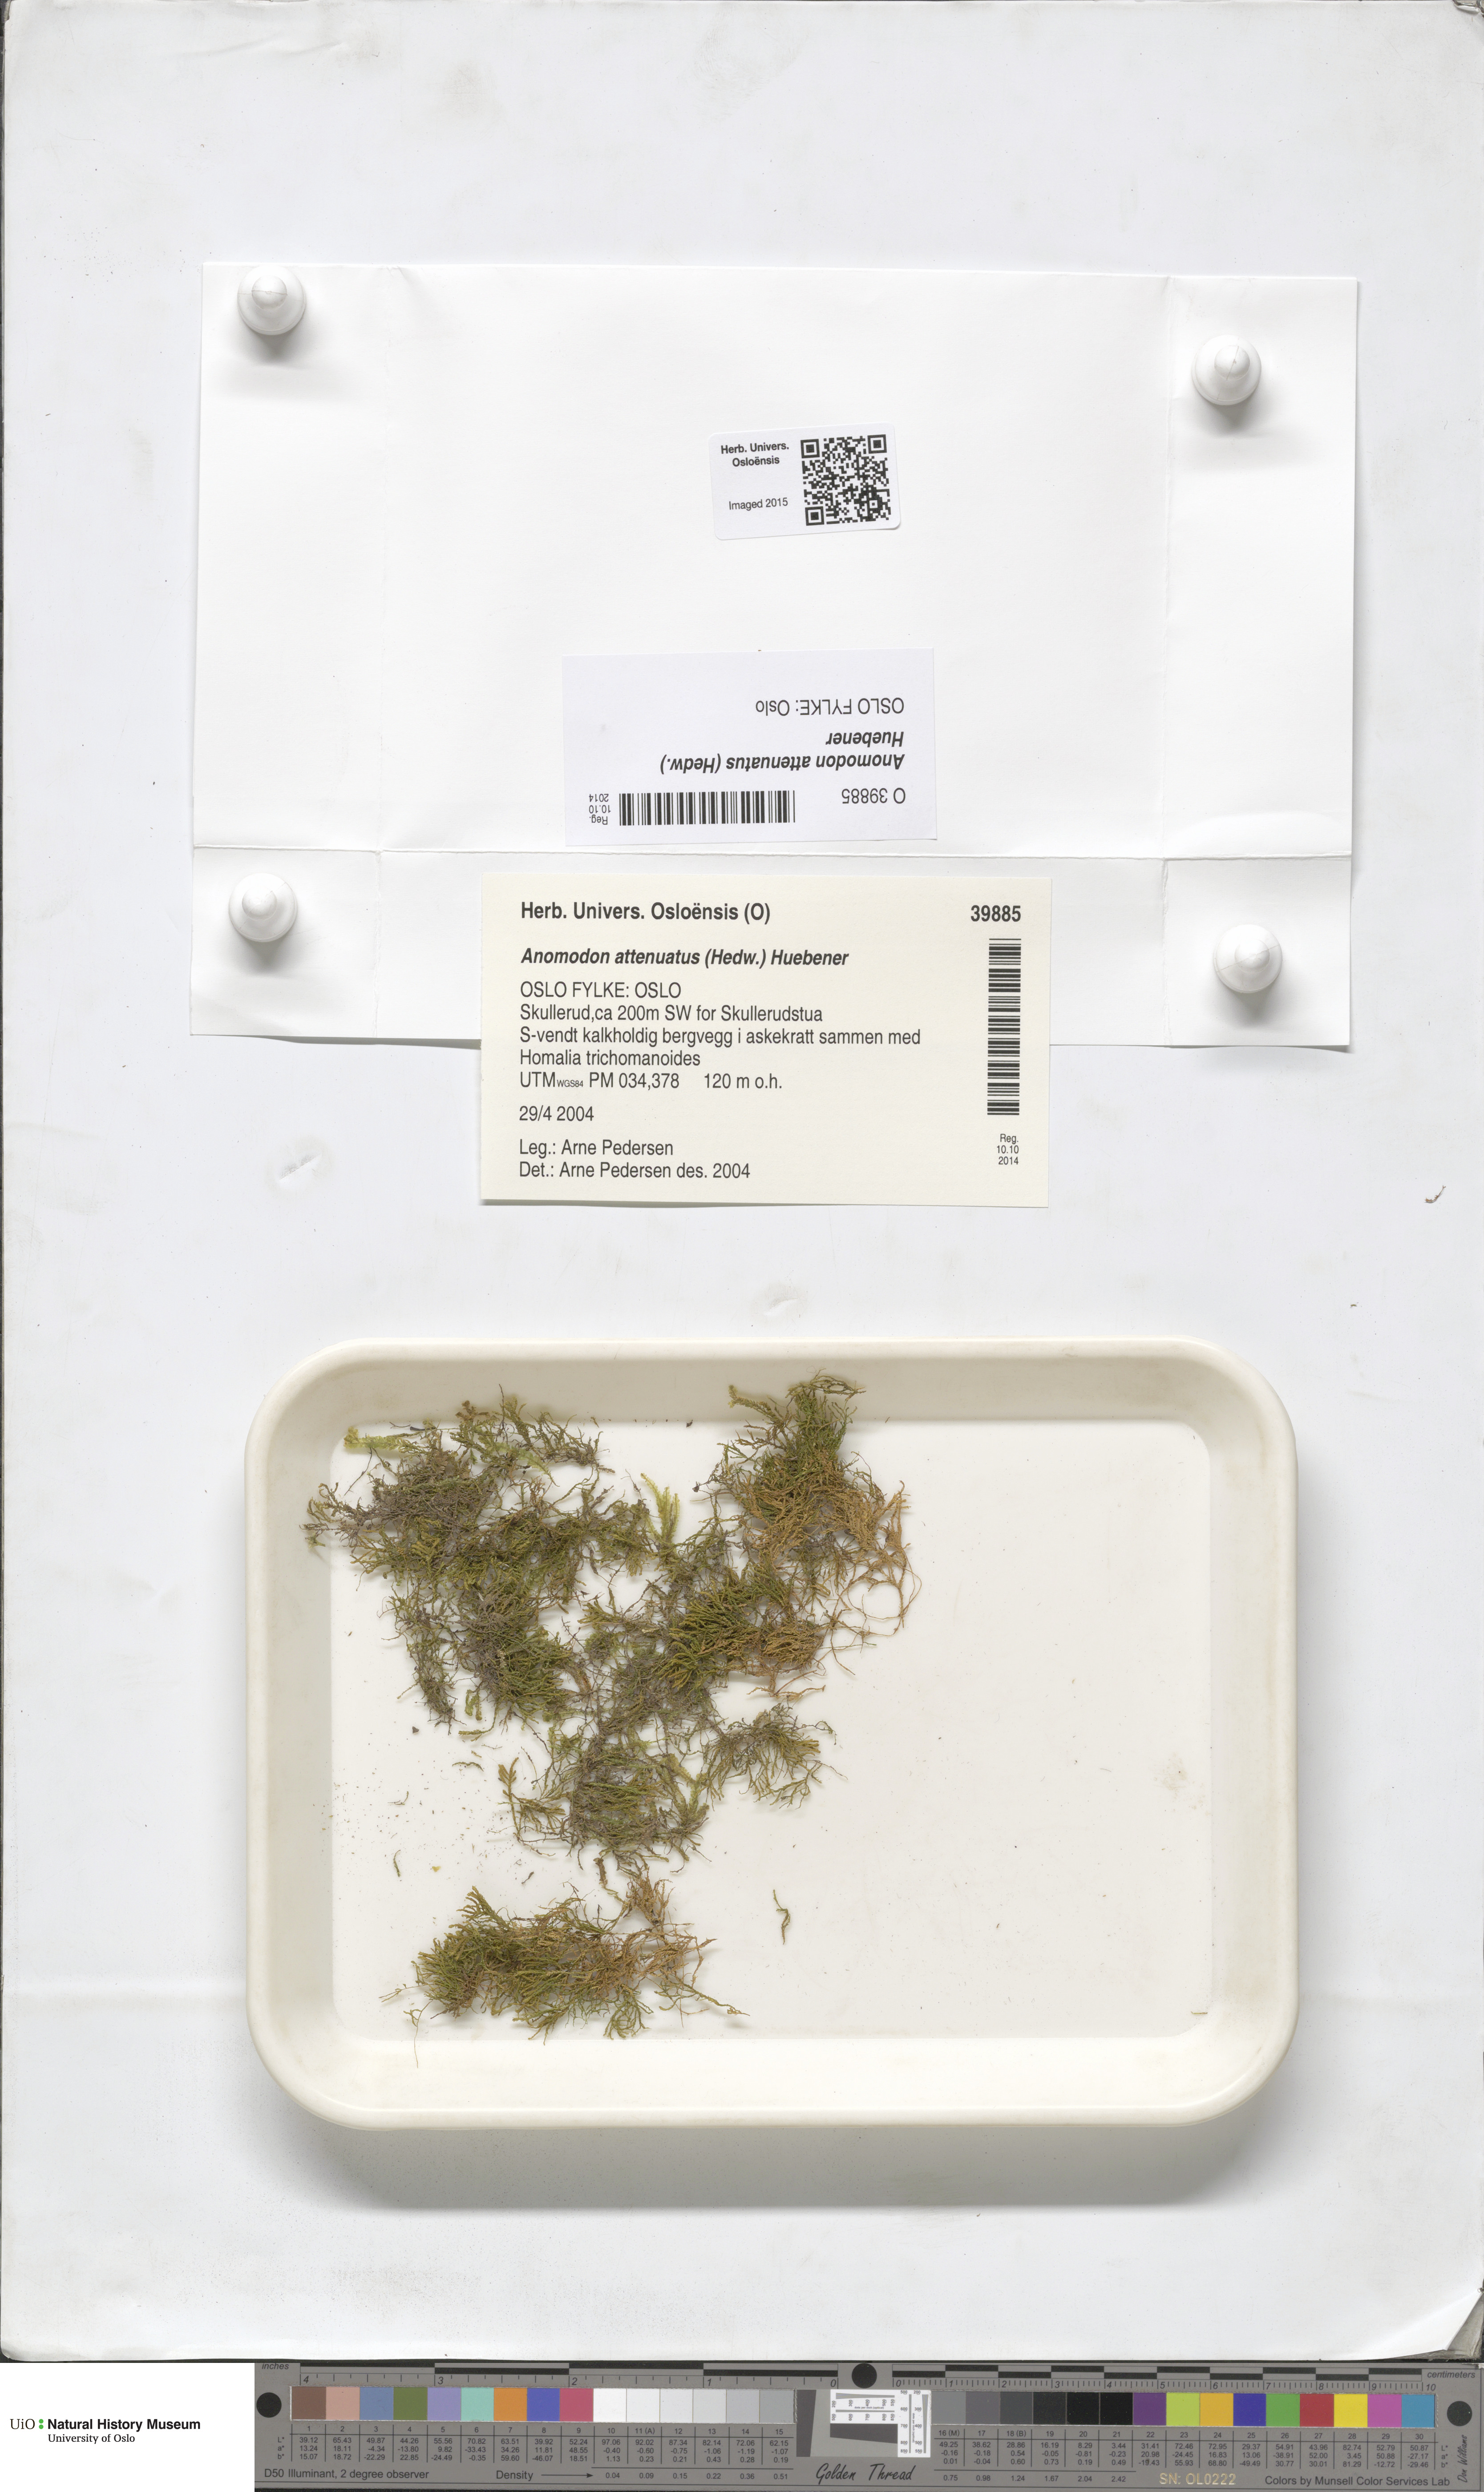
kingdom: Plantae
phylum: Bryophyta
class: Bryopsida
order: Hypnales
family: Neckeraceae
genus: Pseudanomodon
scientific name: Pseudanomodon attenuatus
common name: Tree-skirt moss
